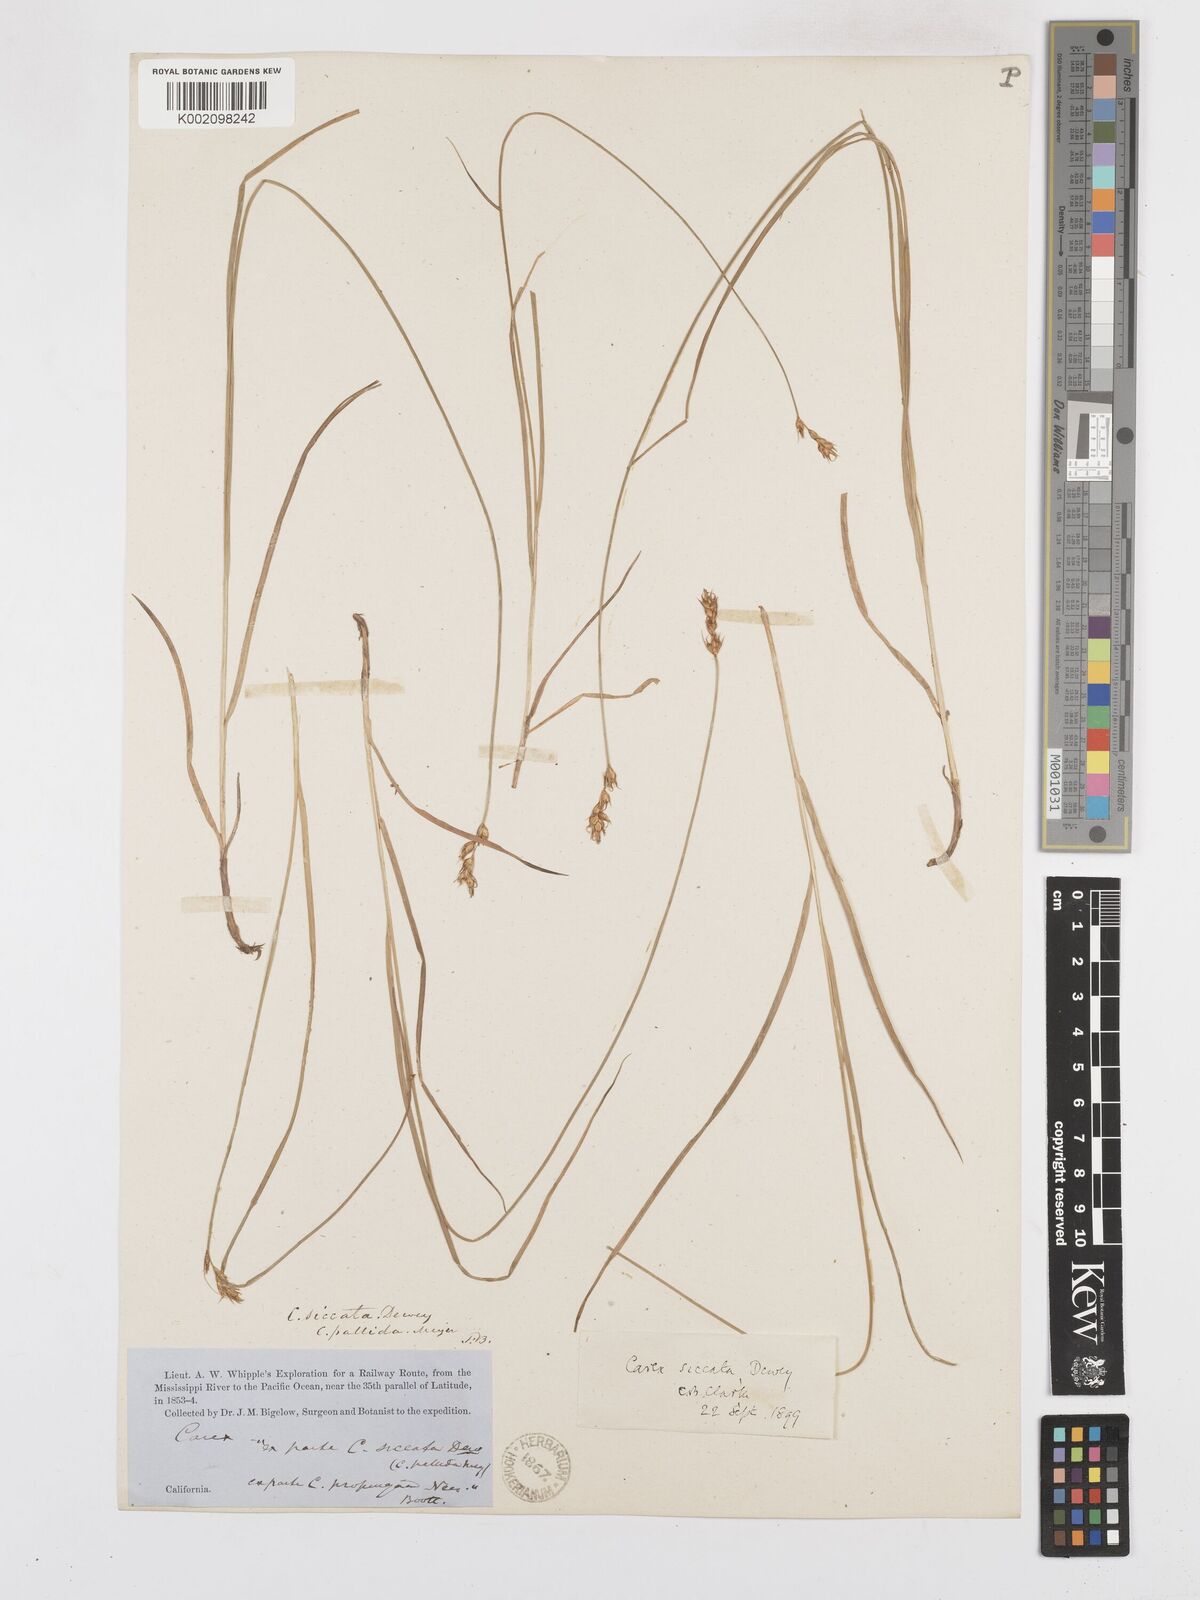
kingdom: Plantae
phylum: Tracheophyta
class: Liliopsida
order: Poales
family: Cyperaceae
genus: Carex
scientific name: Carex foenea
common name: Bronze sedge
